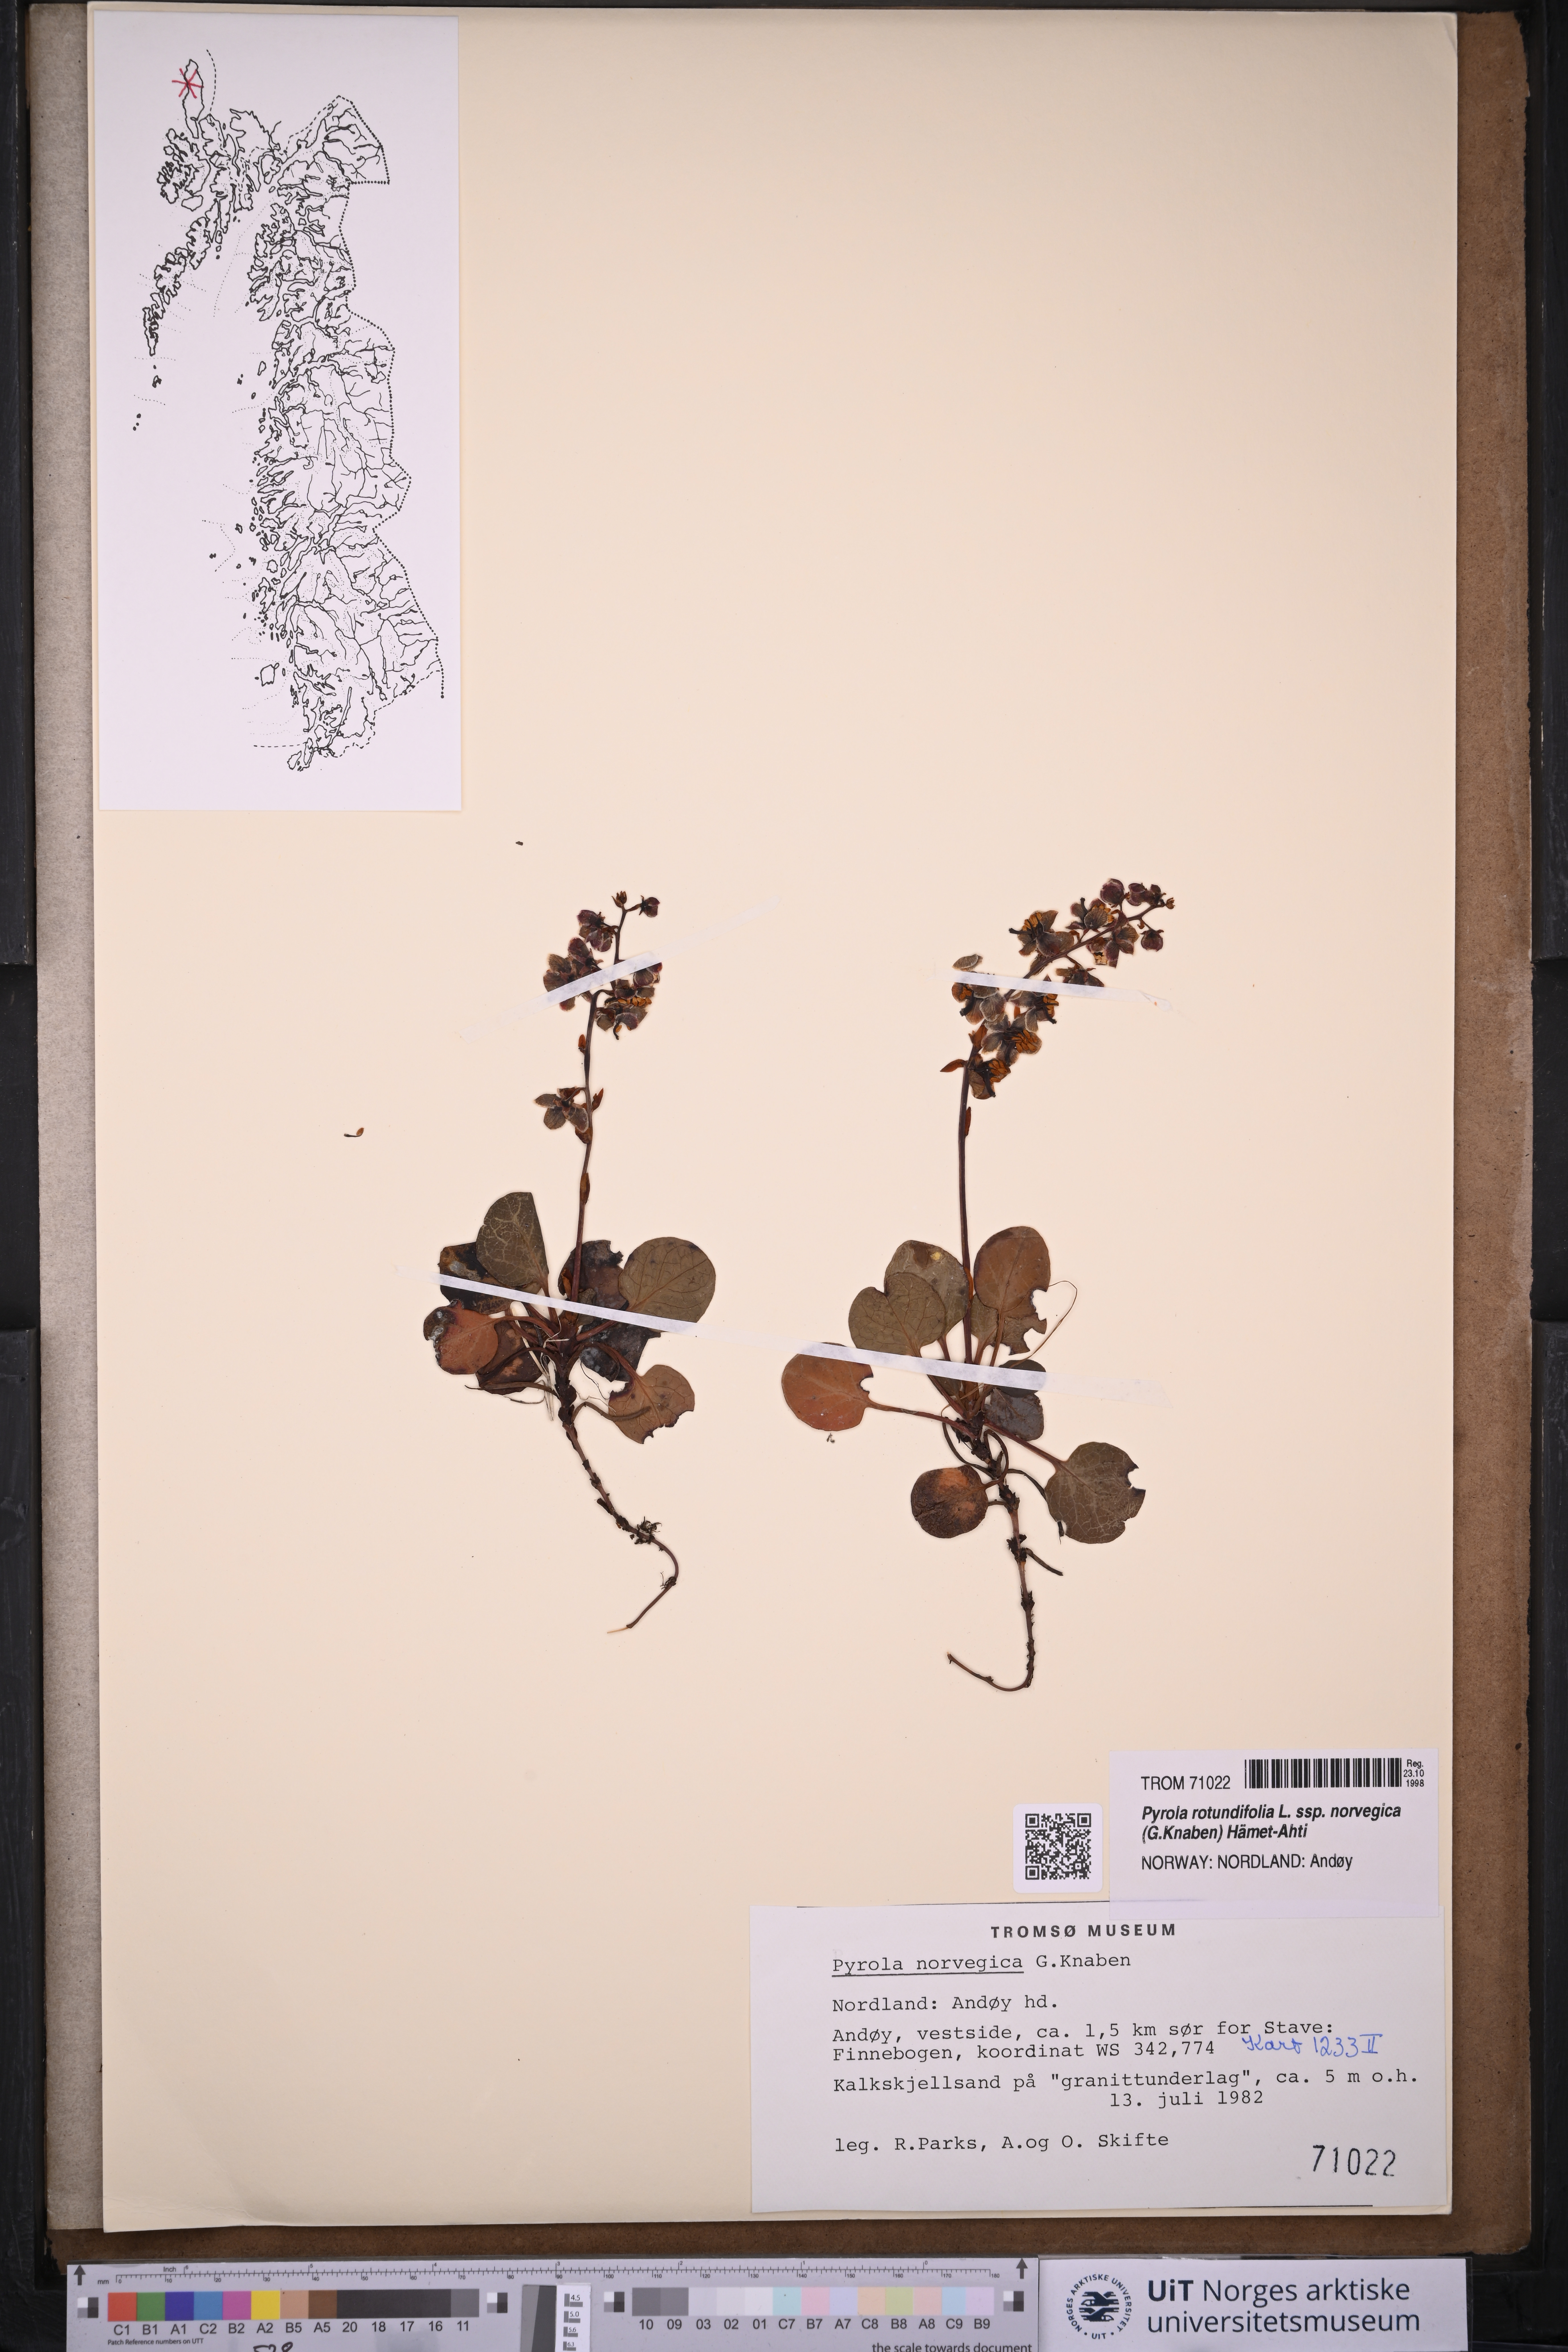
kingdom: Plantae
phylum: Tracheophyta
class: Magnoliopsida
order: Ericales
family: Ericaceae
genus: Pyrola
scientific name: Pyrola rotundifolia
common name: Round-leaved wintergreen
